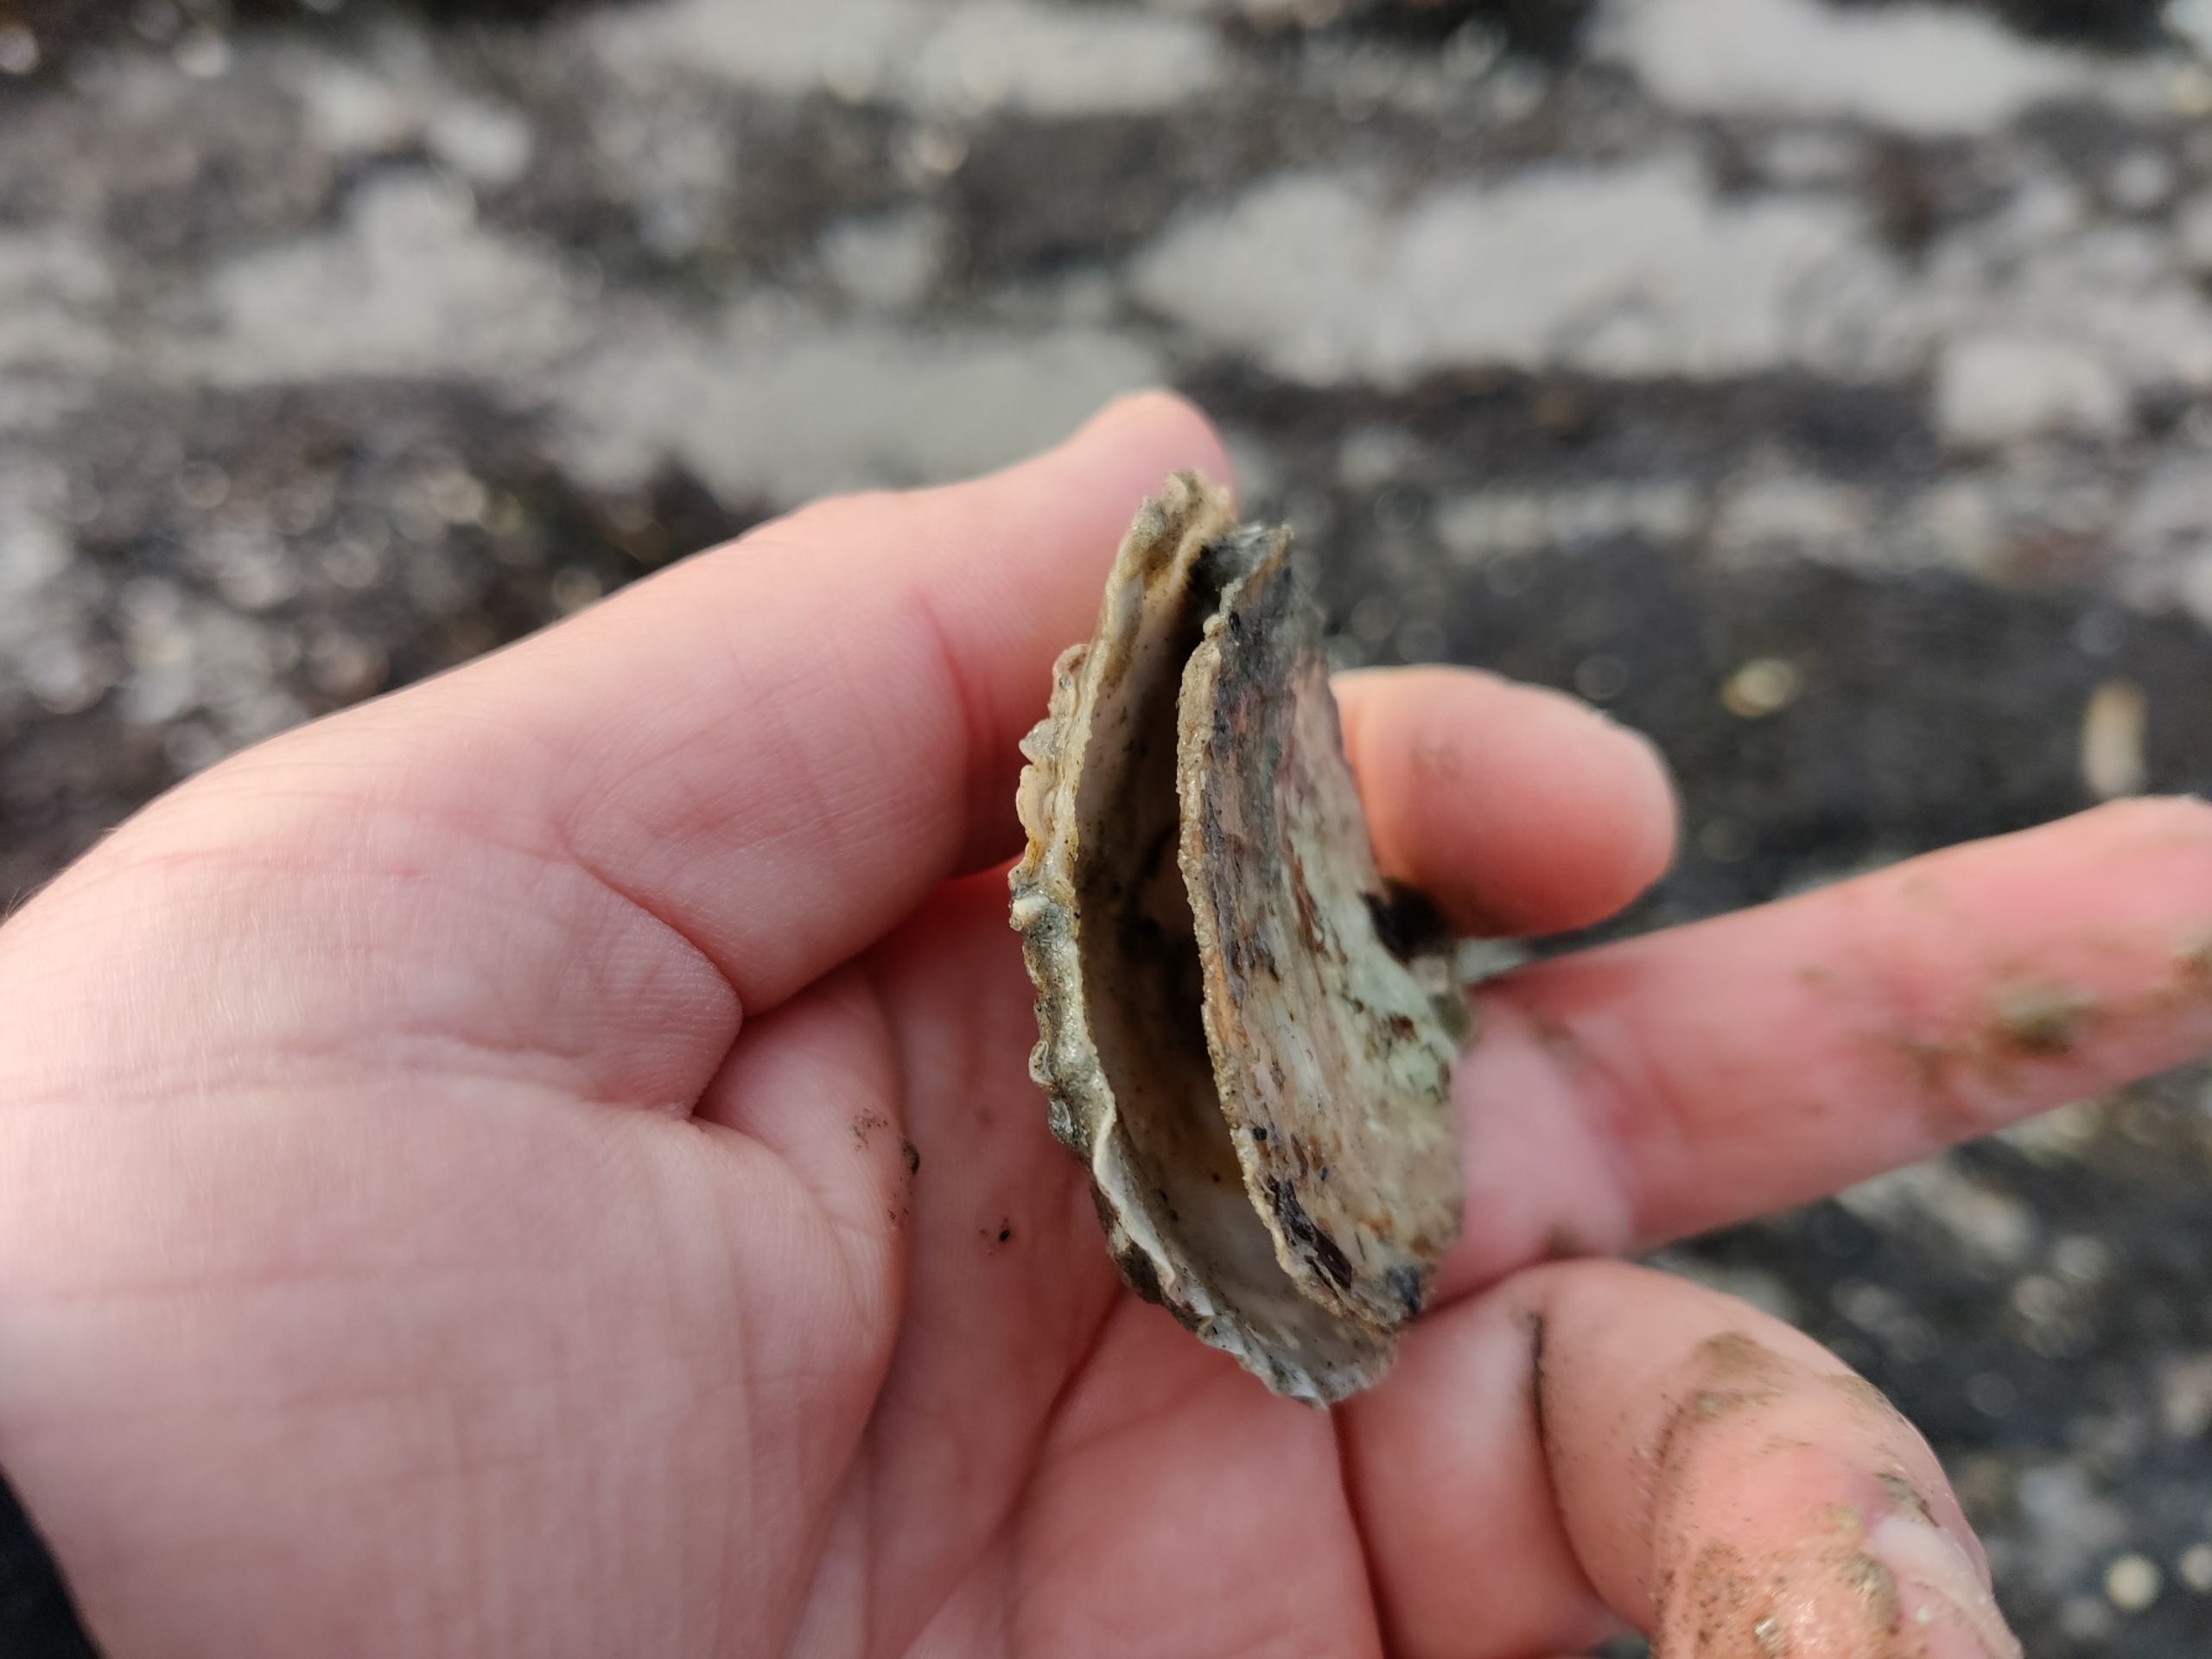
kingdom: Animalia
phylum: Mollusca
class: Bivalvia
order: Ostreida
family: Ostreidae
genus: Ostrea
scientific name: Ostrea edulis
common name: Østers
